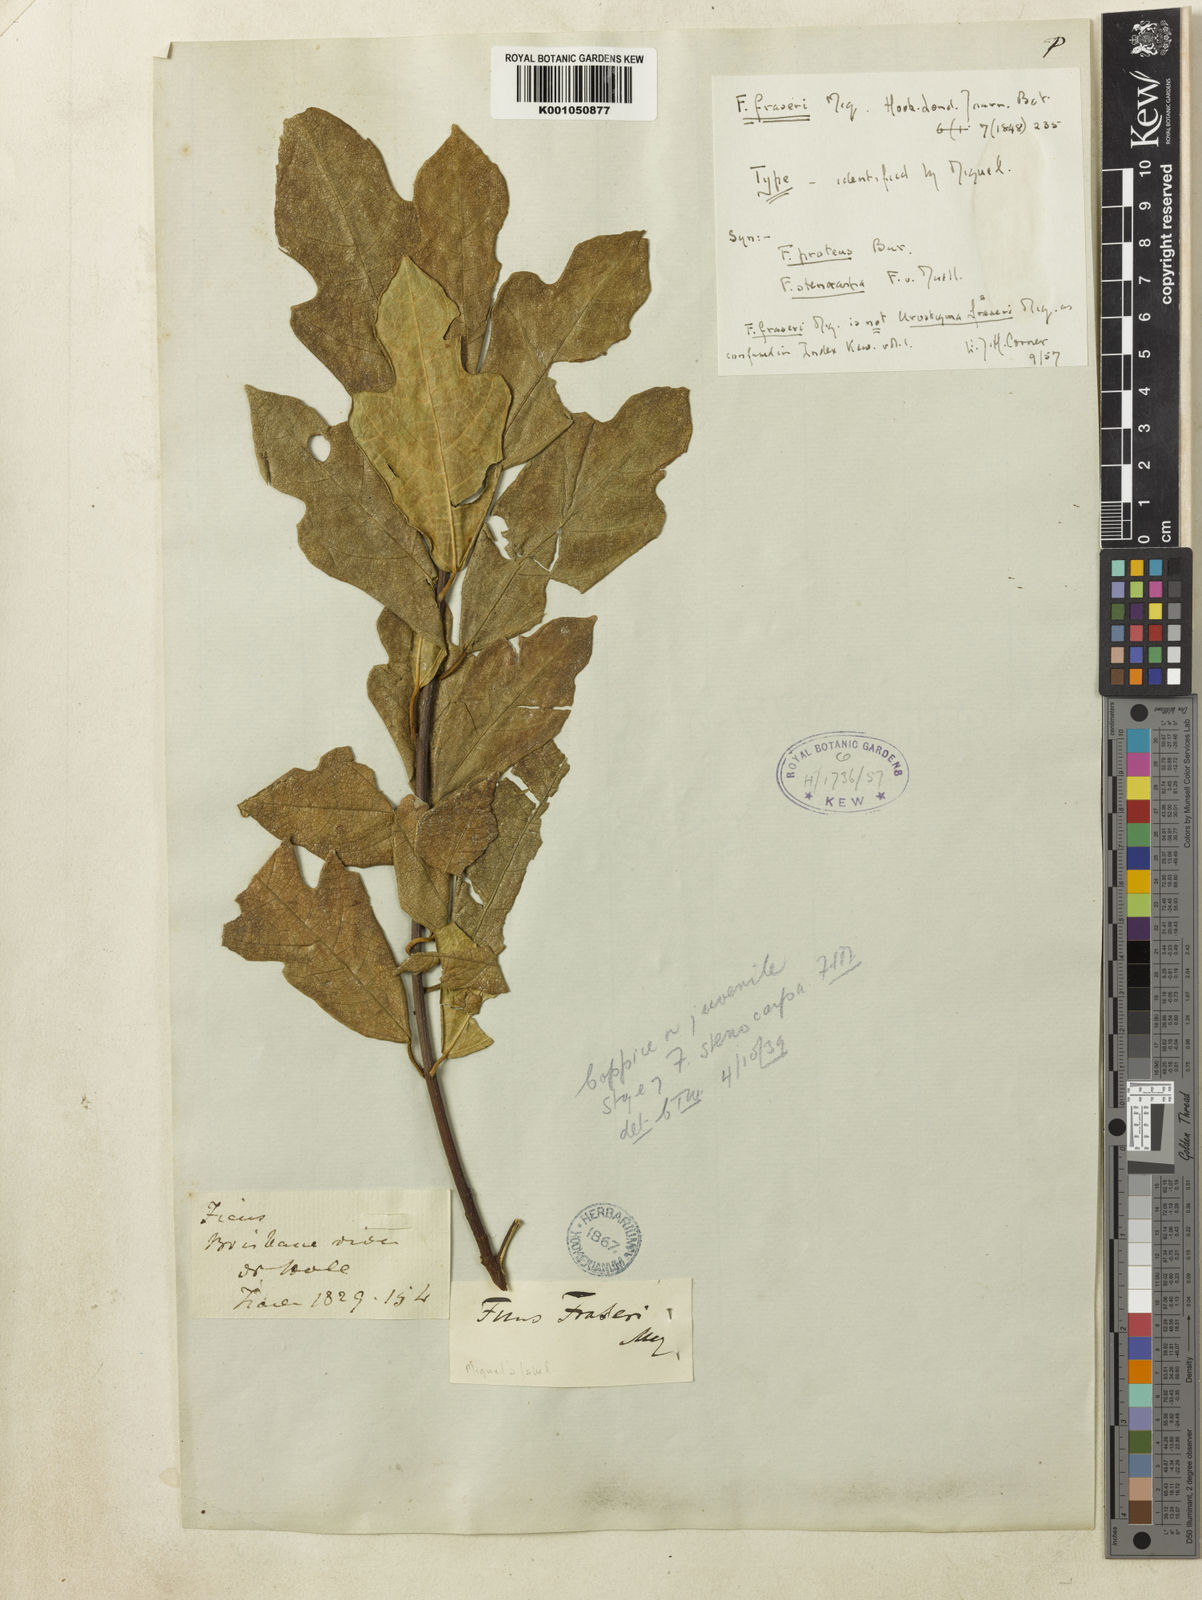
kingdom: Plantae
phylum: Tracheophyta
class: Magnoliopsida
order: Rosales
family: Moraceae
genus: Ficus
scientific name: Ficus fraseri
